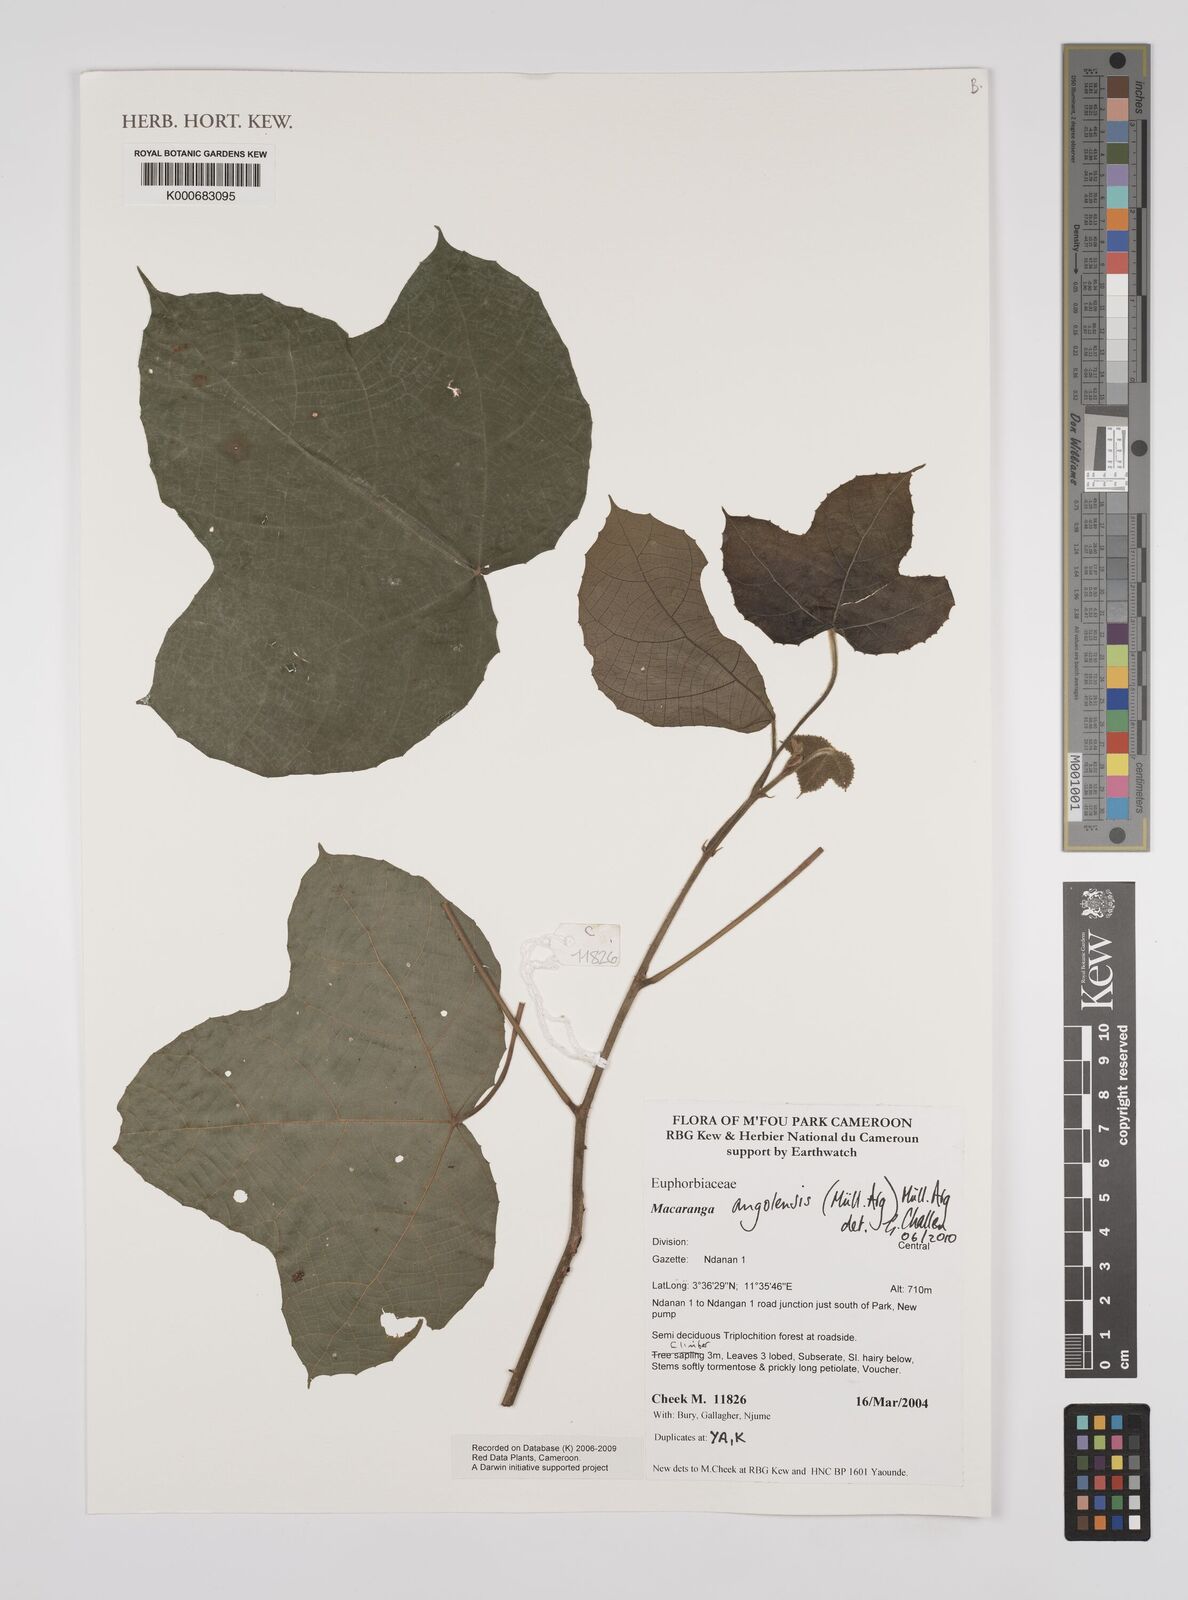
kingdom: Plantae
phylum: Tracheophyta
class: Magnoliopsida
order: Malpighiales
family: Euphorbiaceae
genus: Macaranga
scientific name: Macaranga
